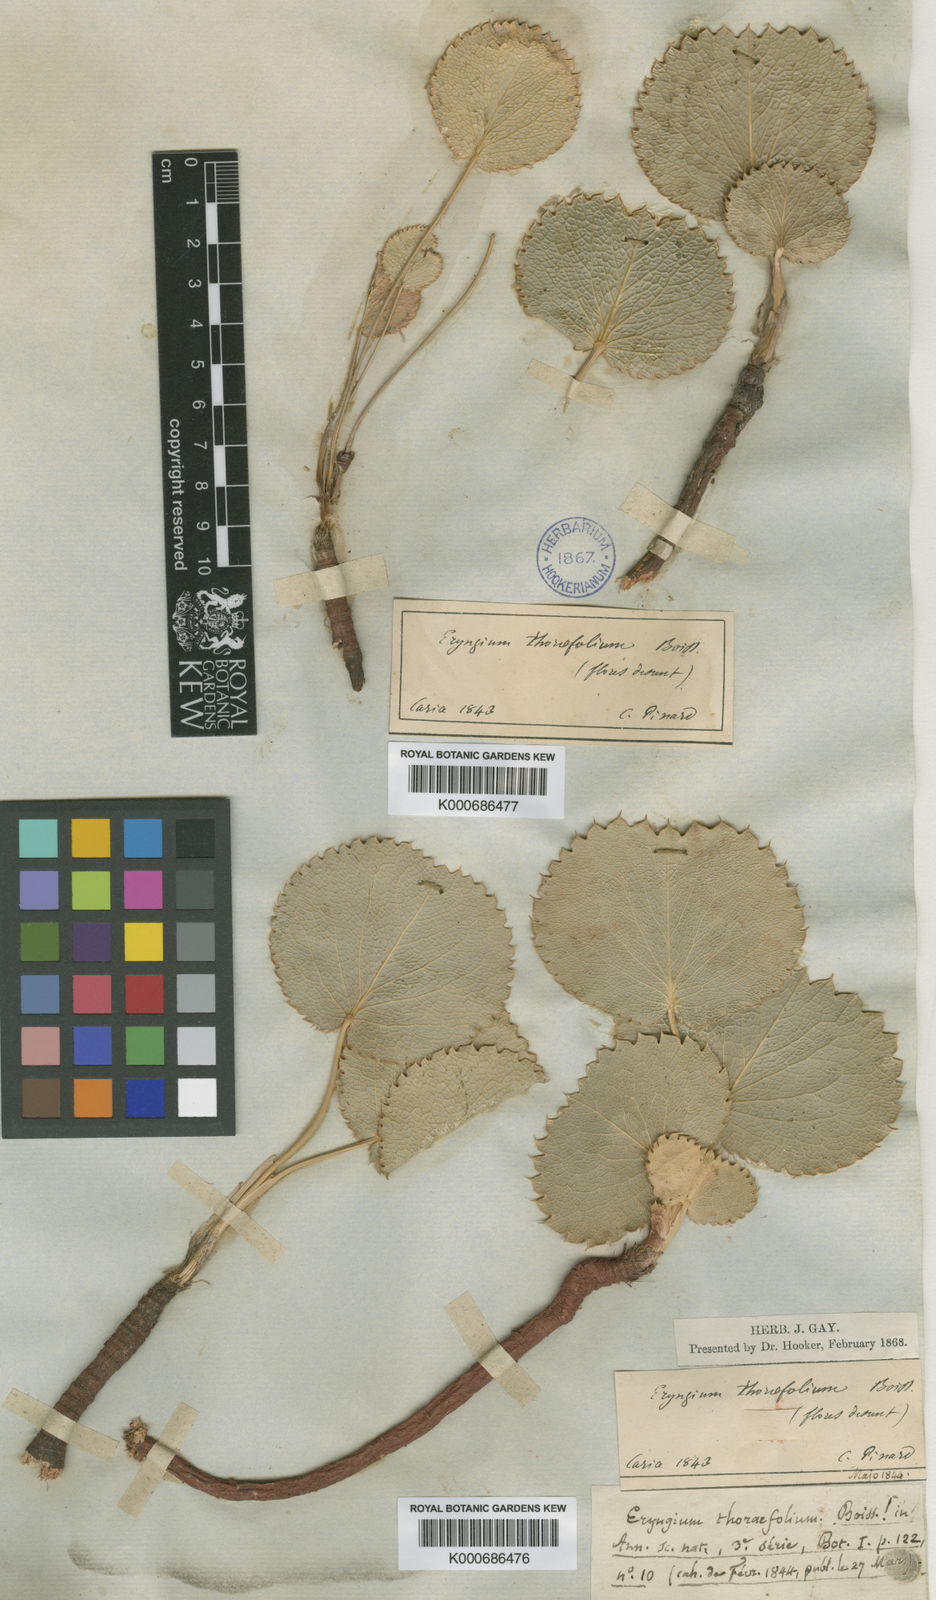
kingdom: Plantae
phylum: Tracheophyta
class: Magnoliopsida
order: Apiales
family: Apiaceae
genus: Eryngium
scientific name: Eryngium thorifolium
